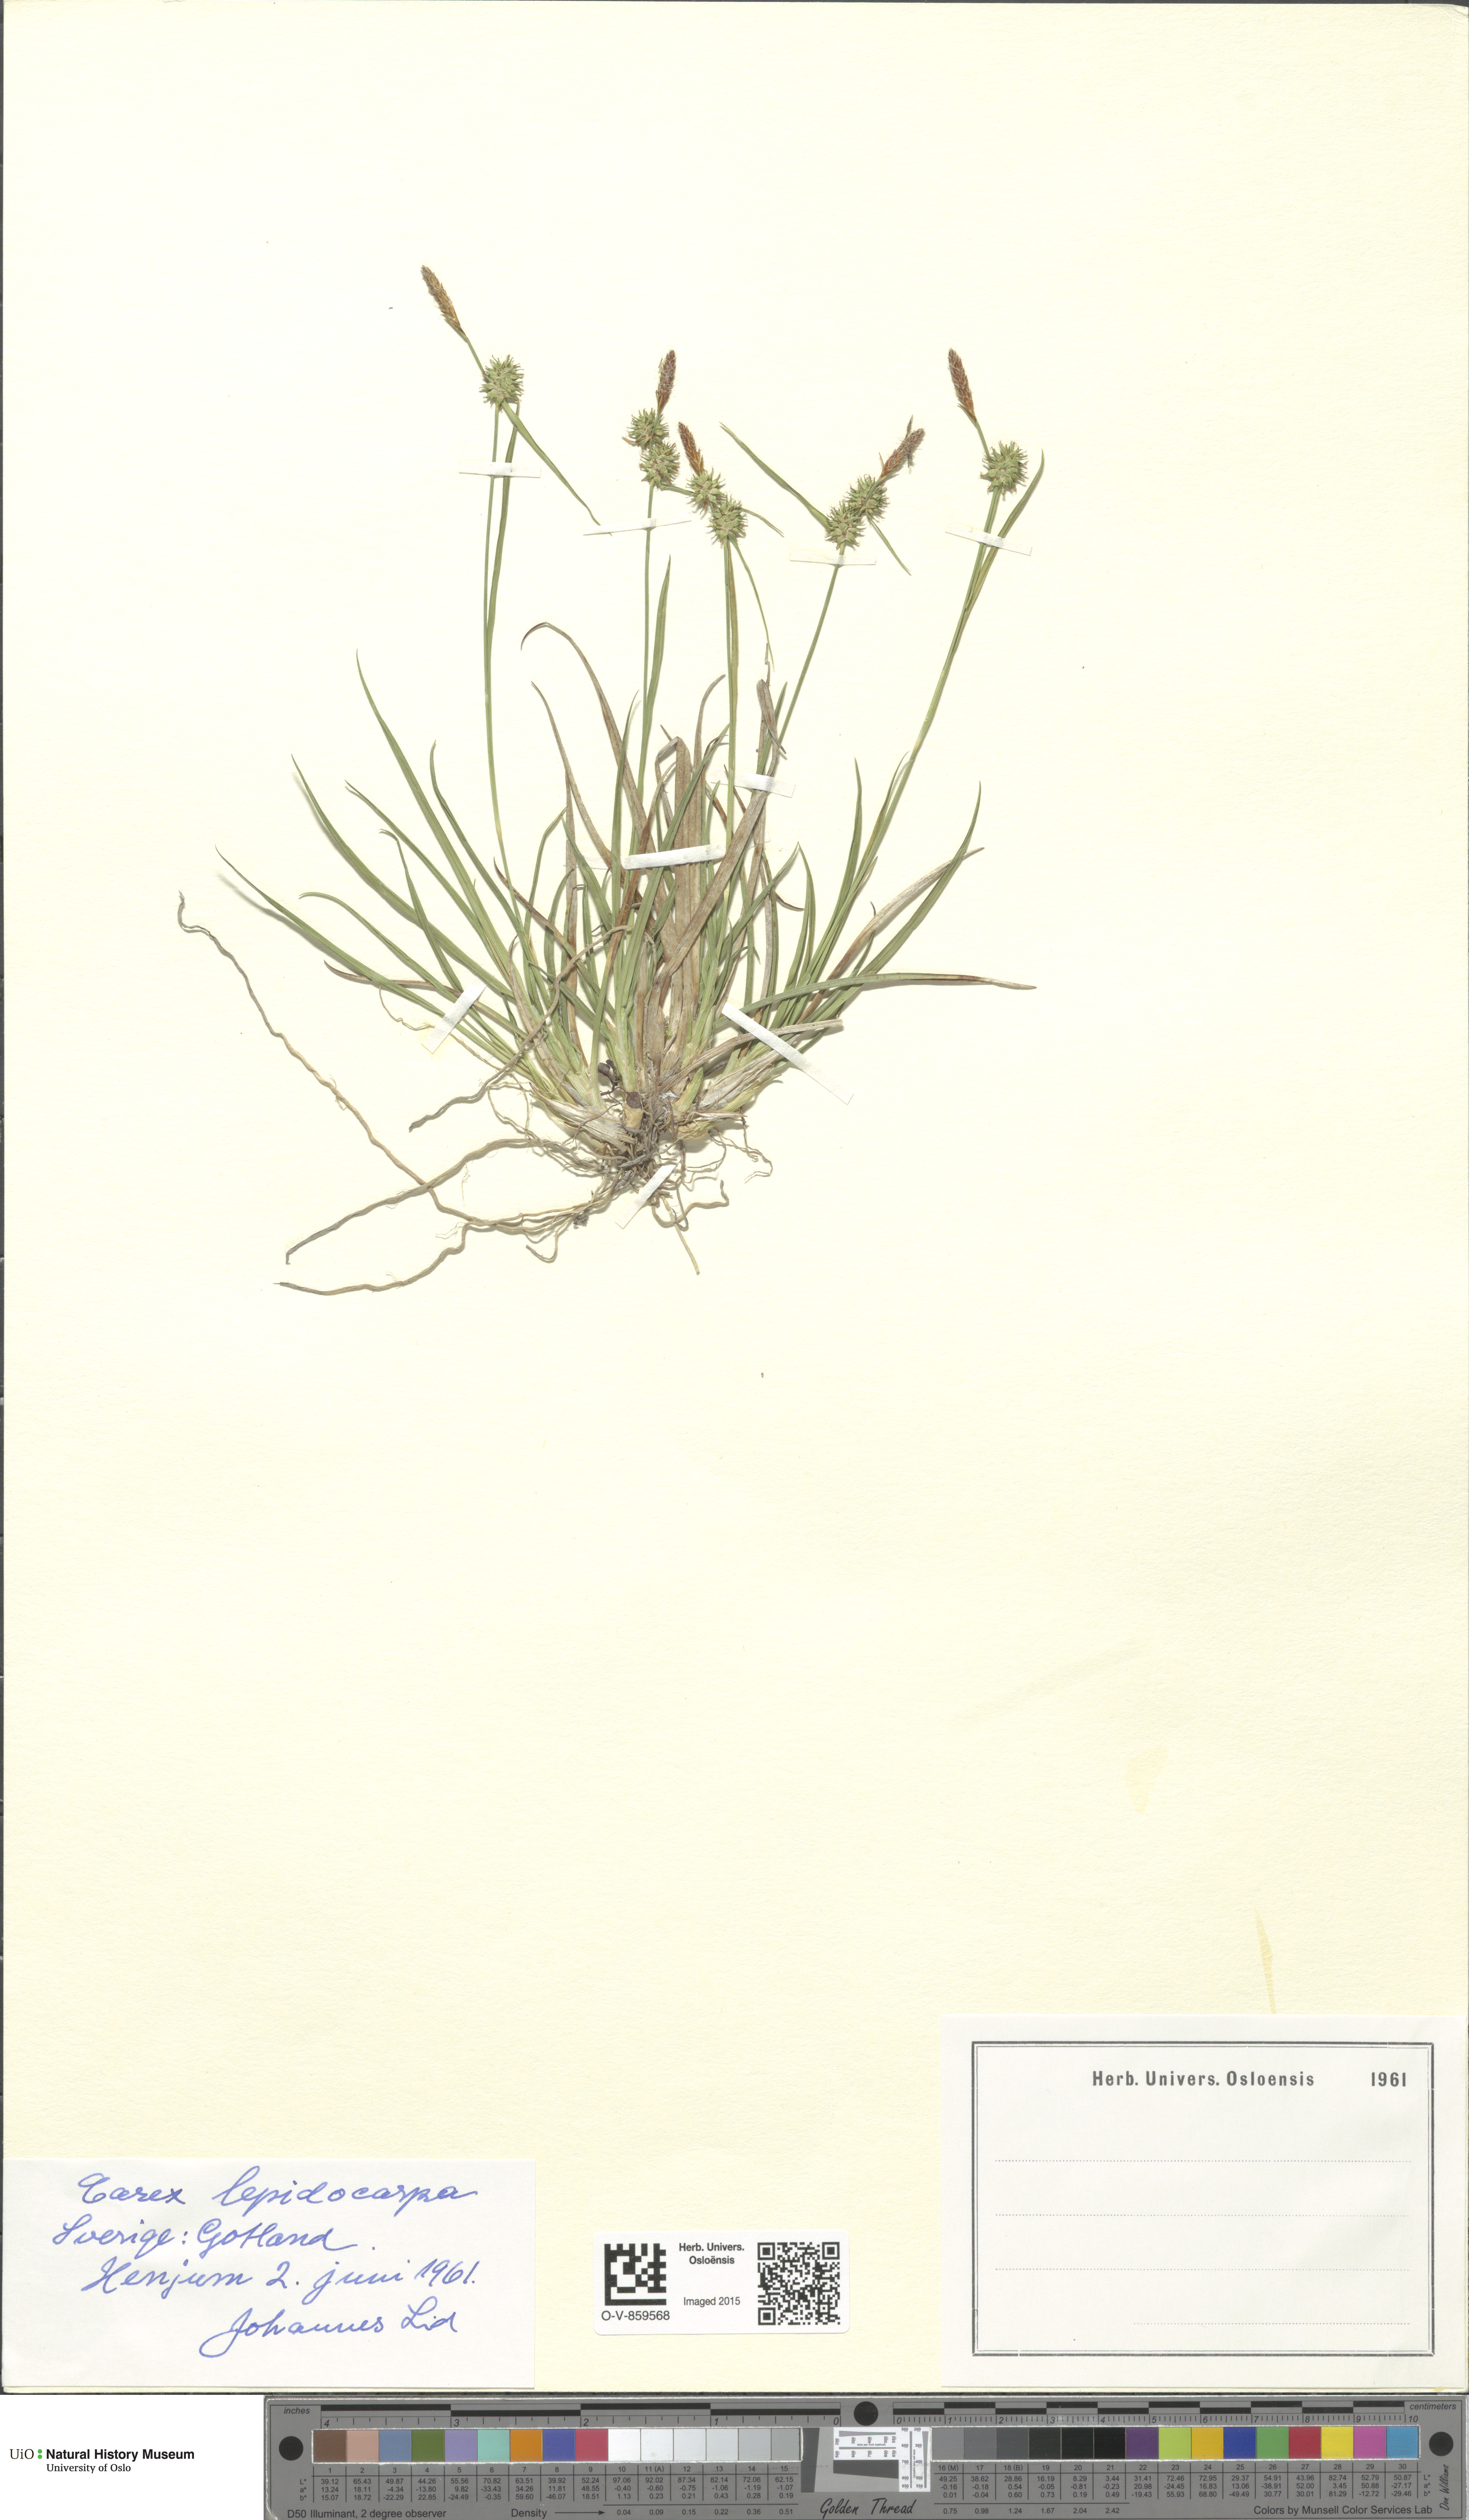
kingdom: Plantae
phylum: Tracheophyta
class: Liliopsida
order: Poales
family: Cyperaceae
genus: Carex
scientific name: Carex lepidocarpa
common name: Long-stalked yellow-sedge
